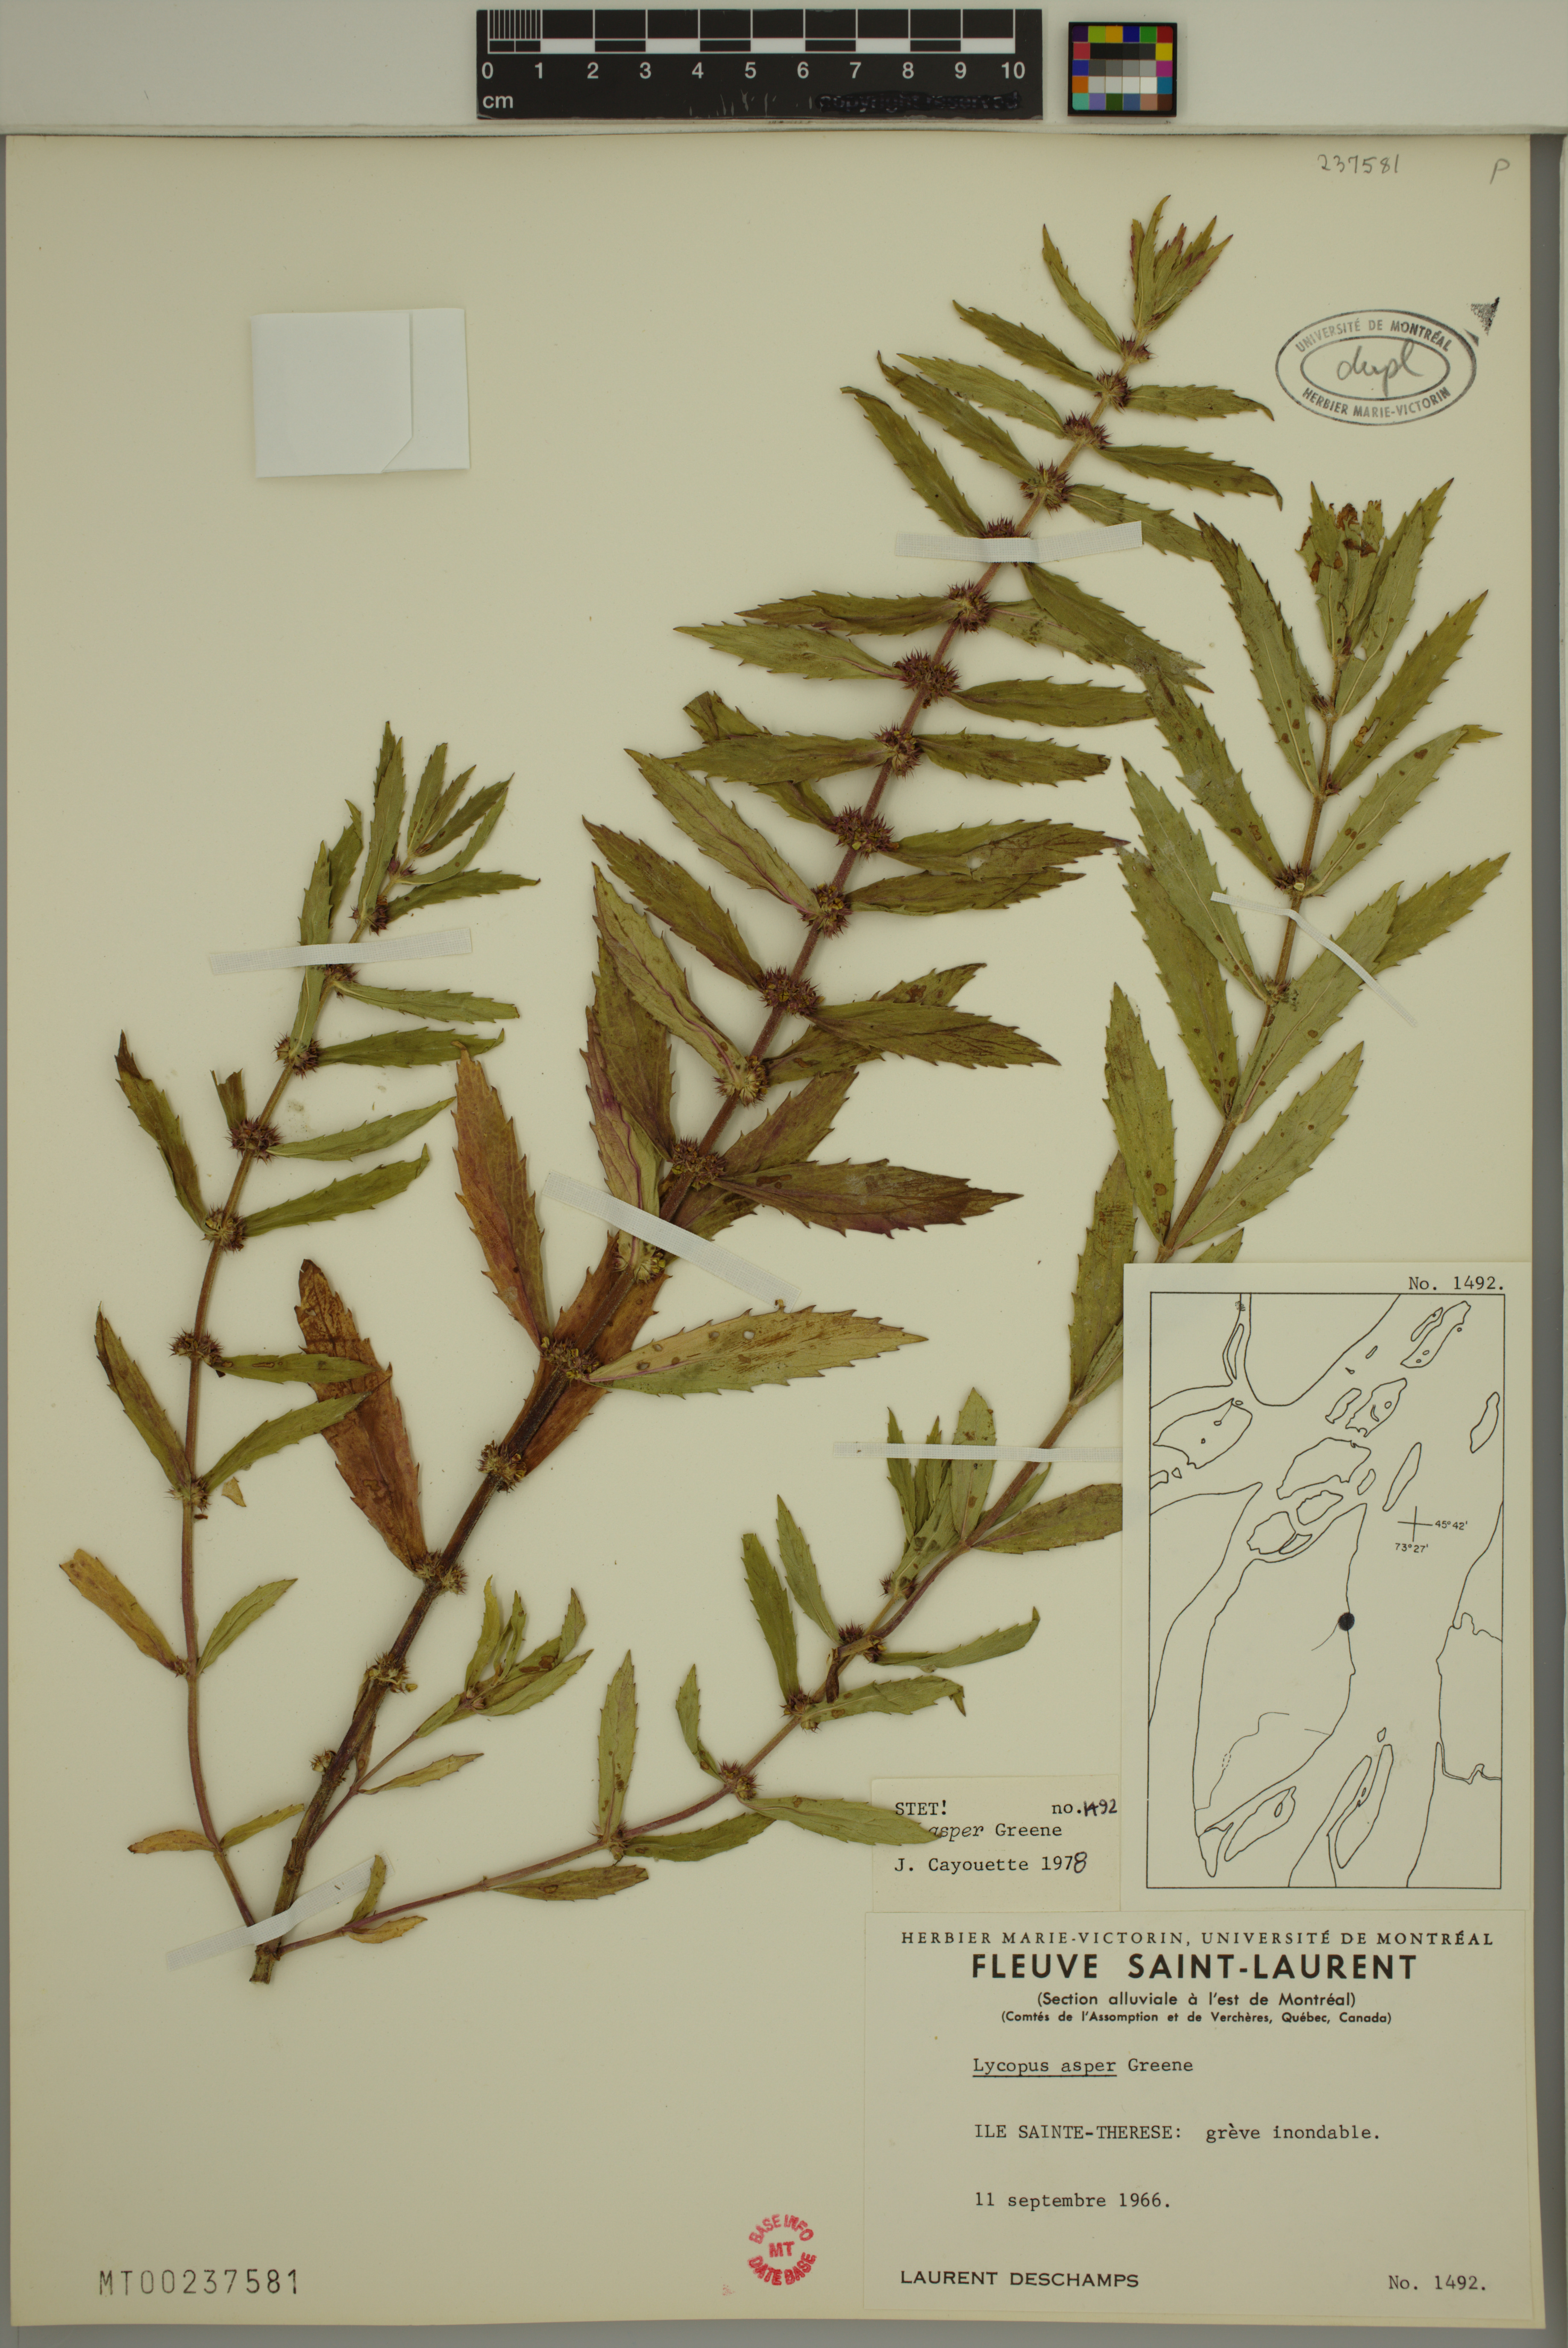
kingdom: Plantae
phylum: Tracheophyta
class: Magnoliopsida
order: Lamiales
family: Lamiaceae
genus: Lycopus
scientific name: Lycopus asper
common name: Rough water-horehound
